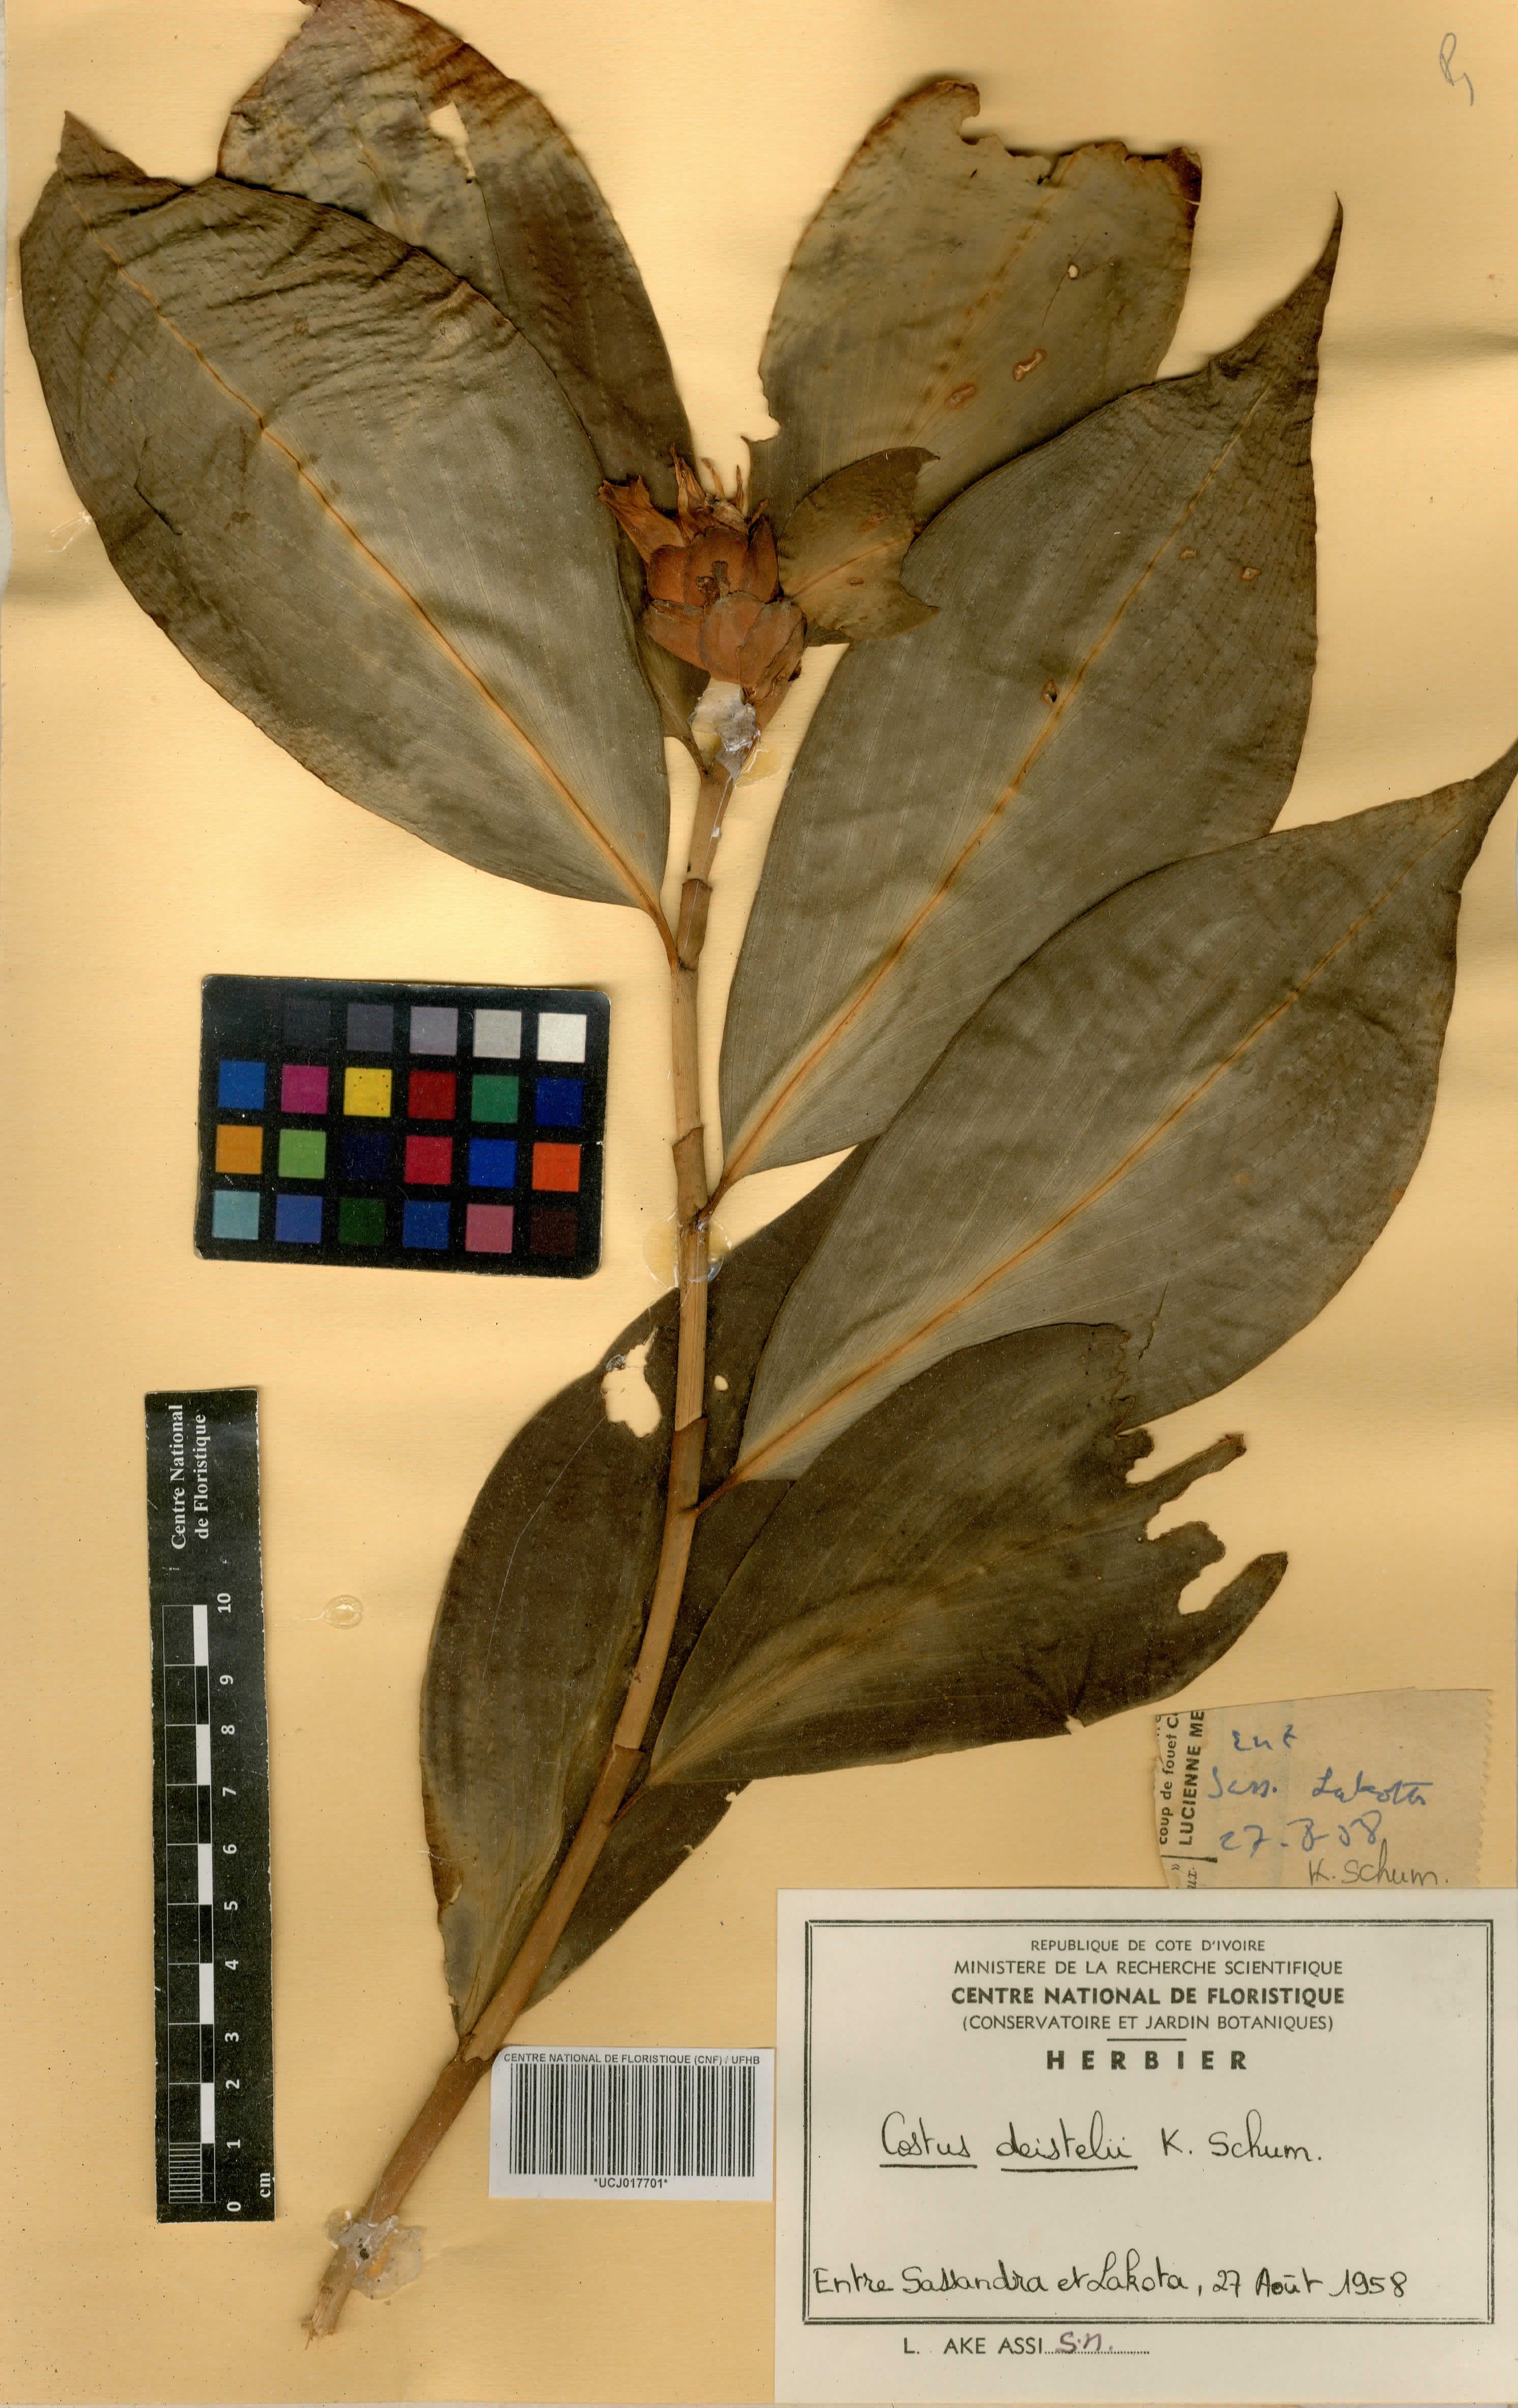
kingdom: Plantae
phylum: Tracheophyta
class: Liliopsida
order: Zingiberales
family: Costaceae
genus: Costus
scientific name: Costus afer
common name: Spiral-ginger
